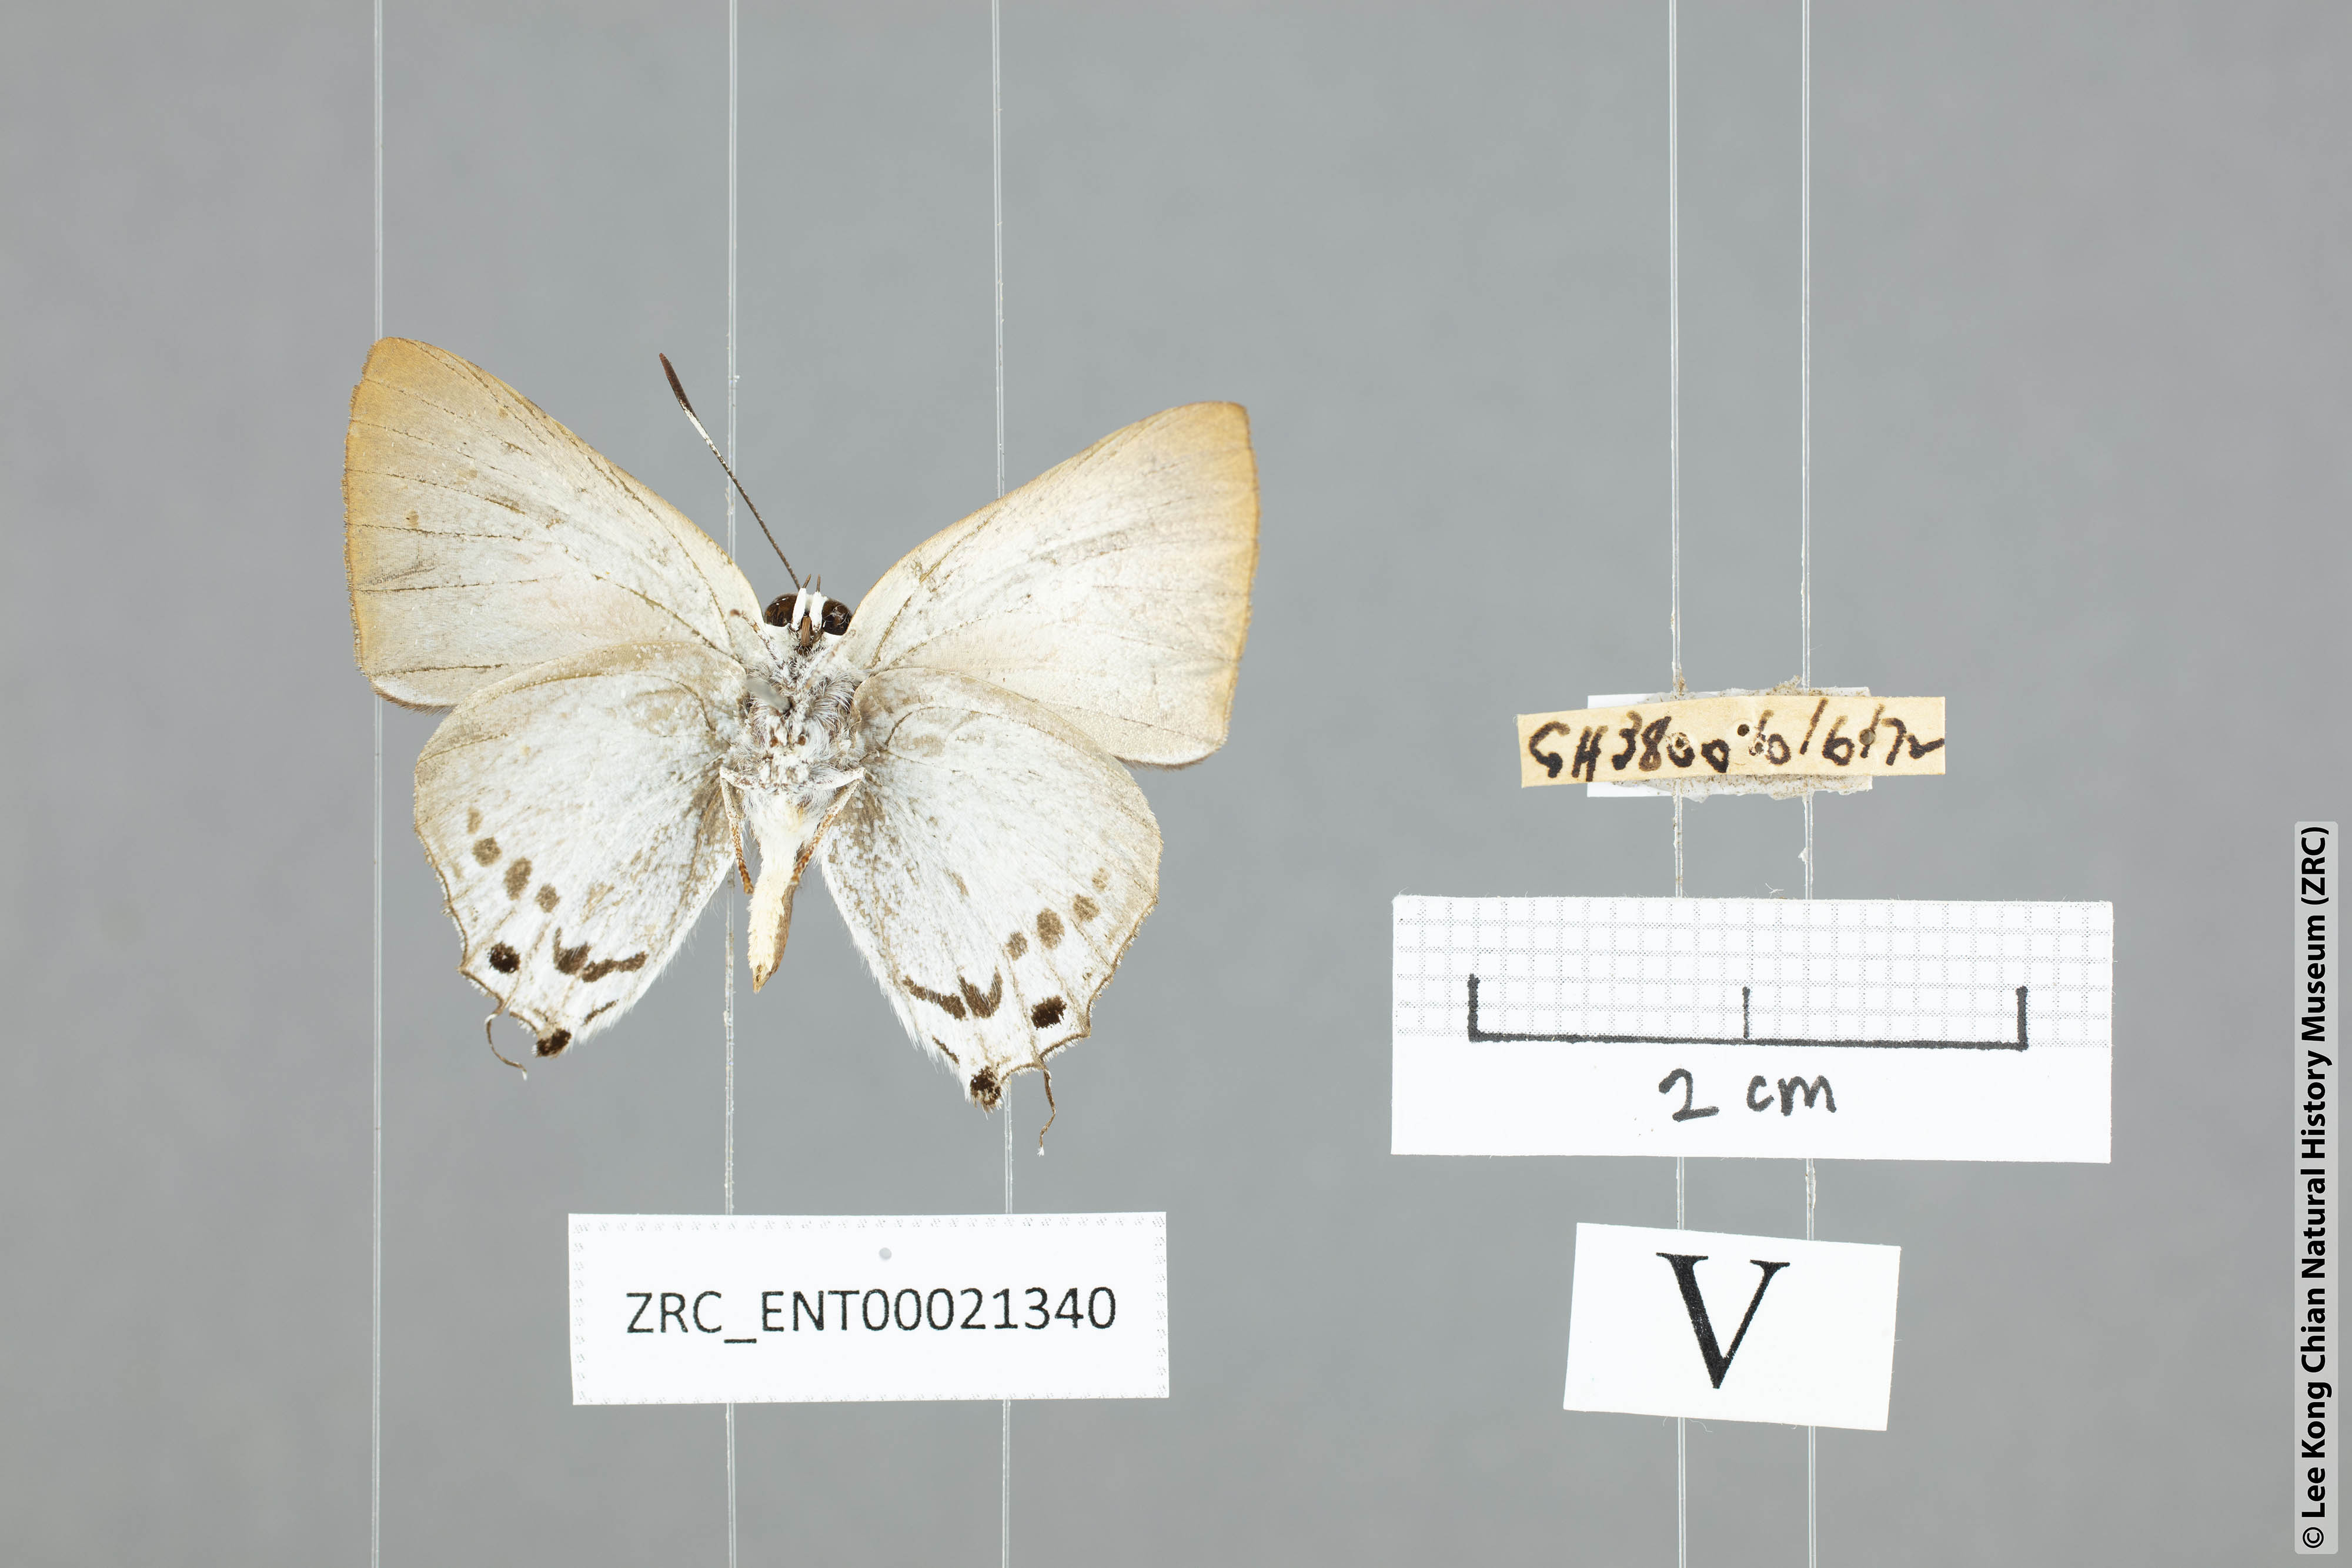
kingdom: Animalia
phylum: Arthropoda
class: Insecta
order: Lepidoptera
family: Lycaenidae
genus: Deudorix
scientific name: Deudorix
